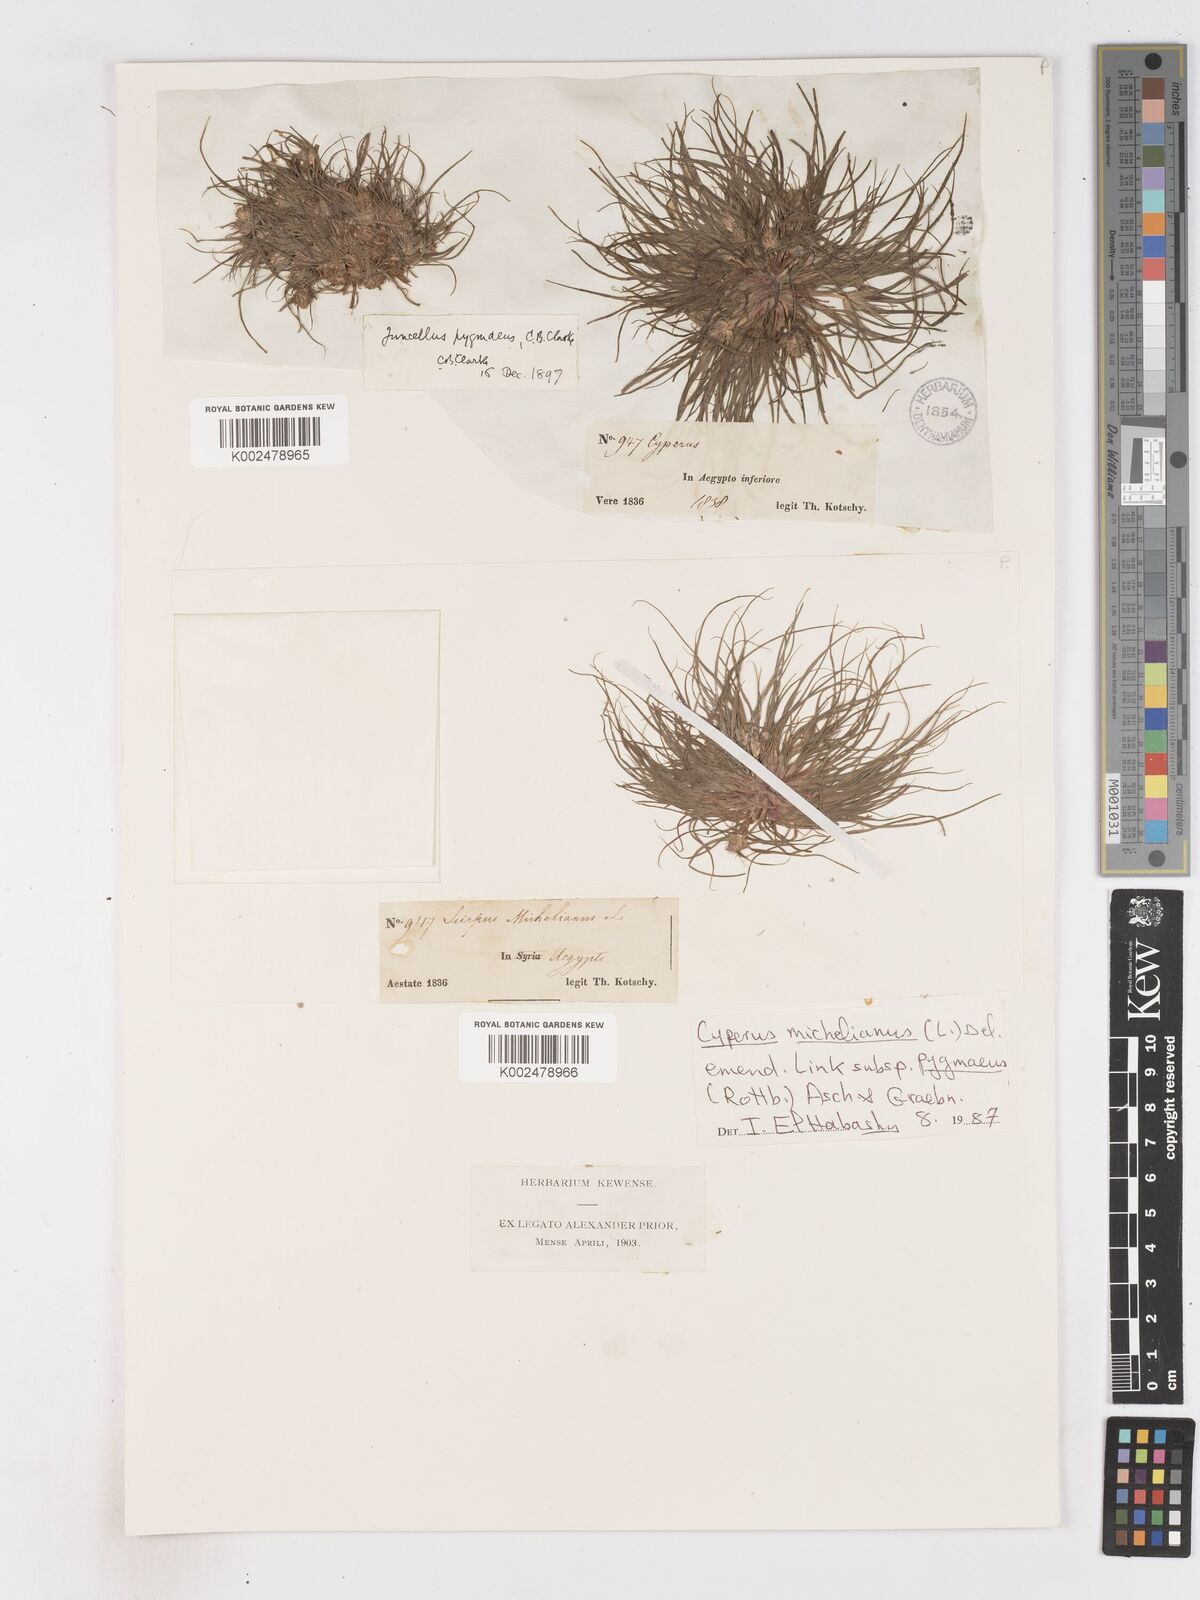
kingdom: Plantae
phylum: Tracheophyta
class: Liliopsida
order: Poales
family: Cyperaceae
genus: Cyperus
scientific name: Cyperus michelianus
